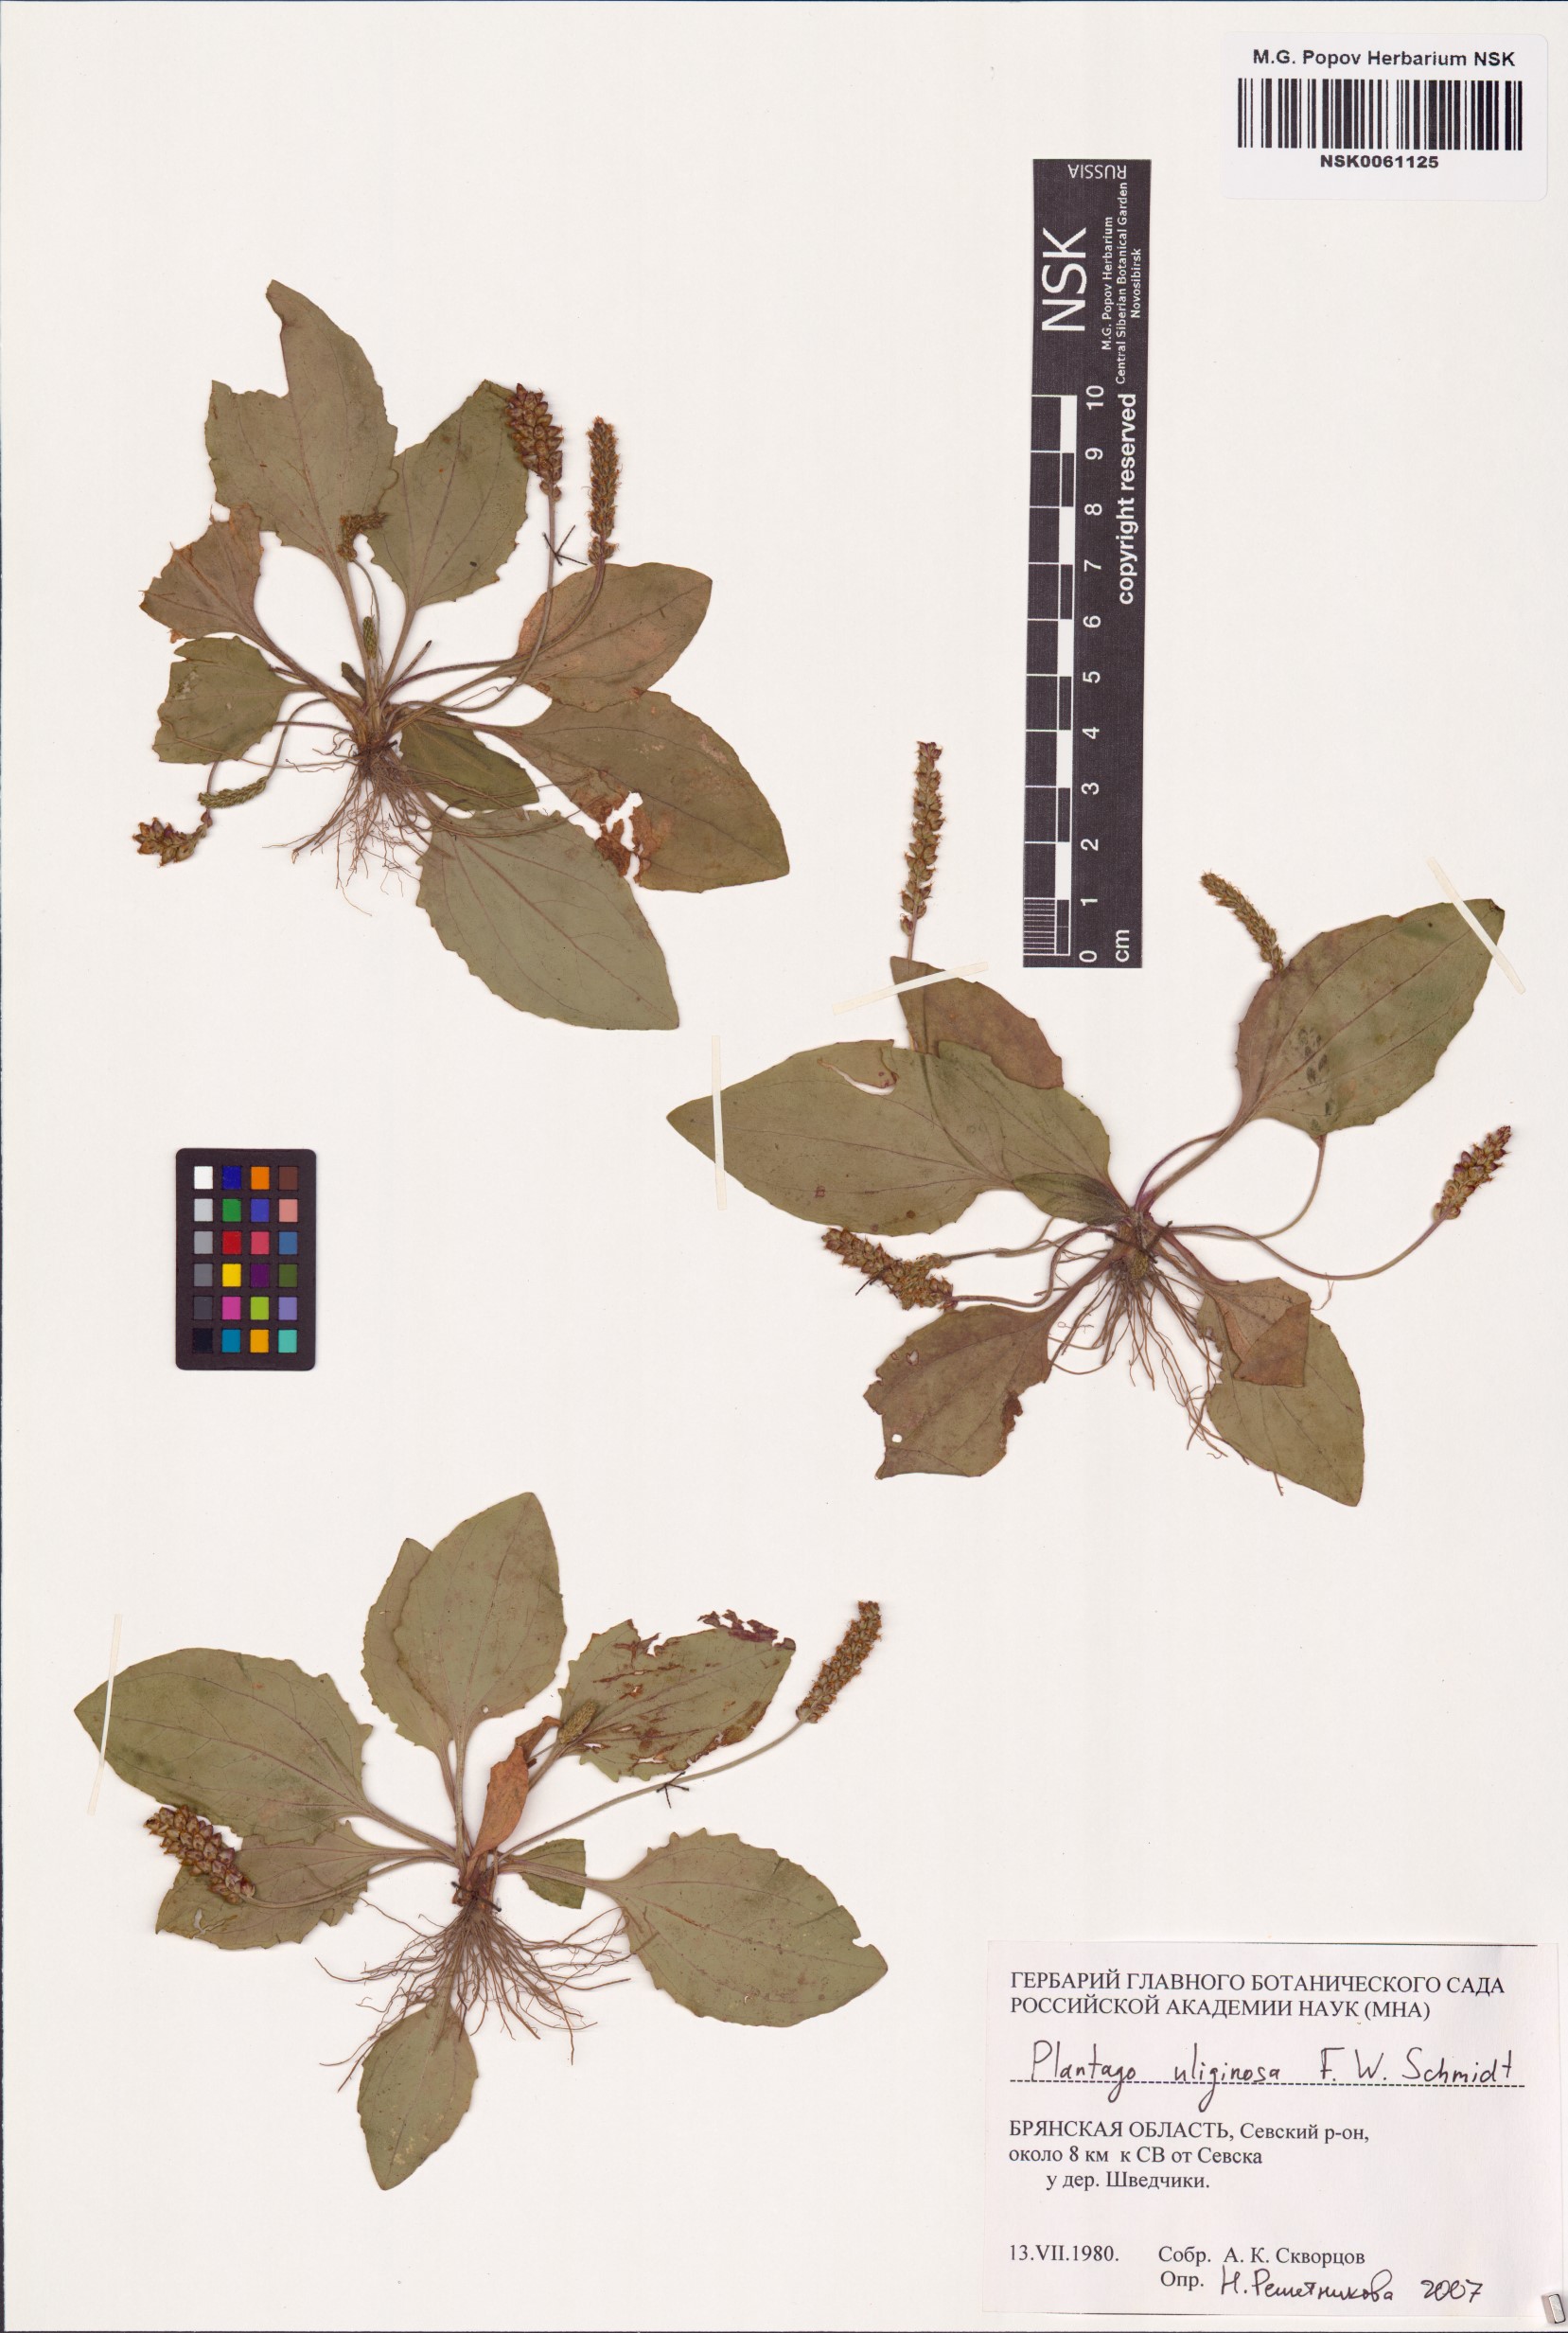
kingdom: Plantae
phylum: Tracheophyta
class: Magnoliopsida
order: Lamiales
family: Plantaginaceae
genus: Plantago
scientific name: Plantago uliginosa
